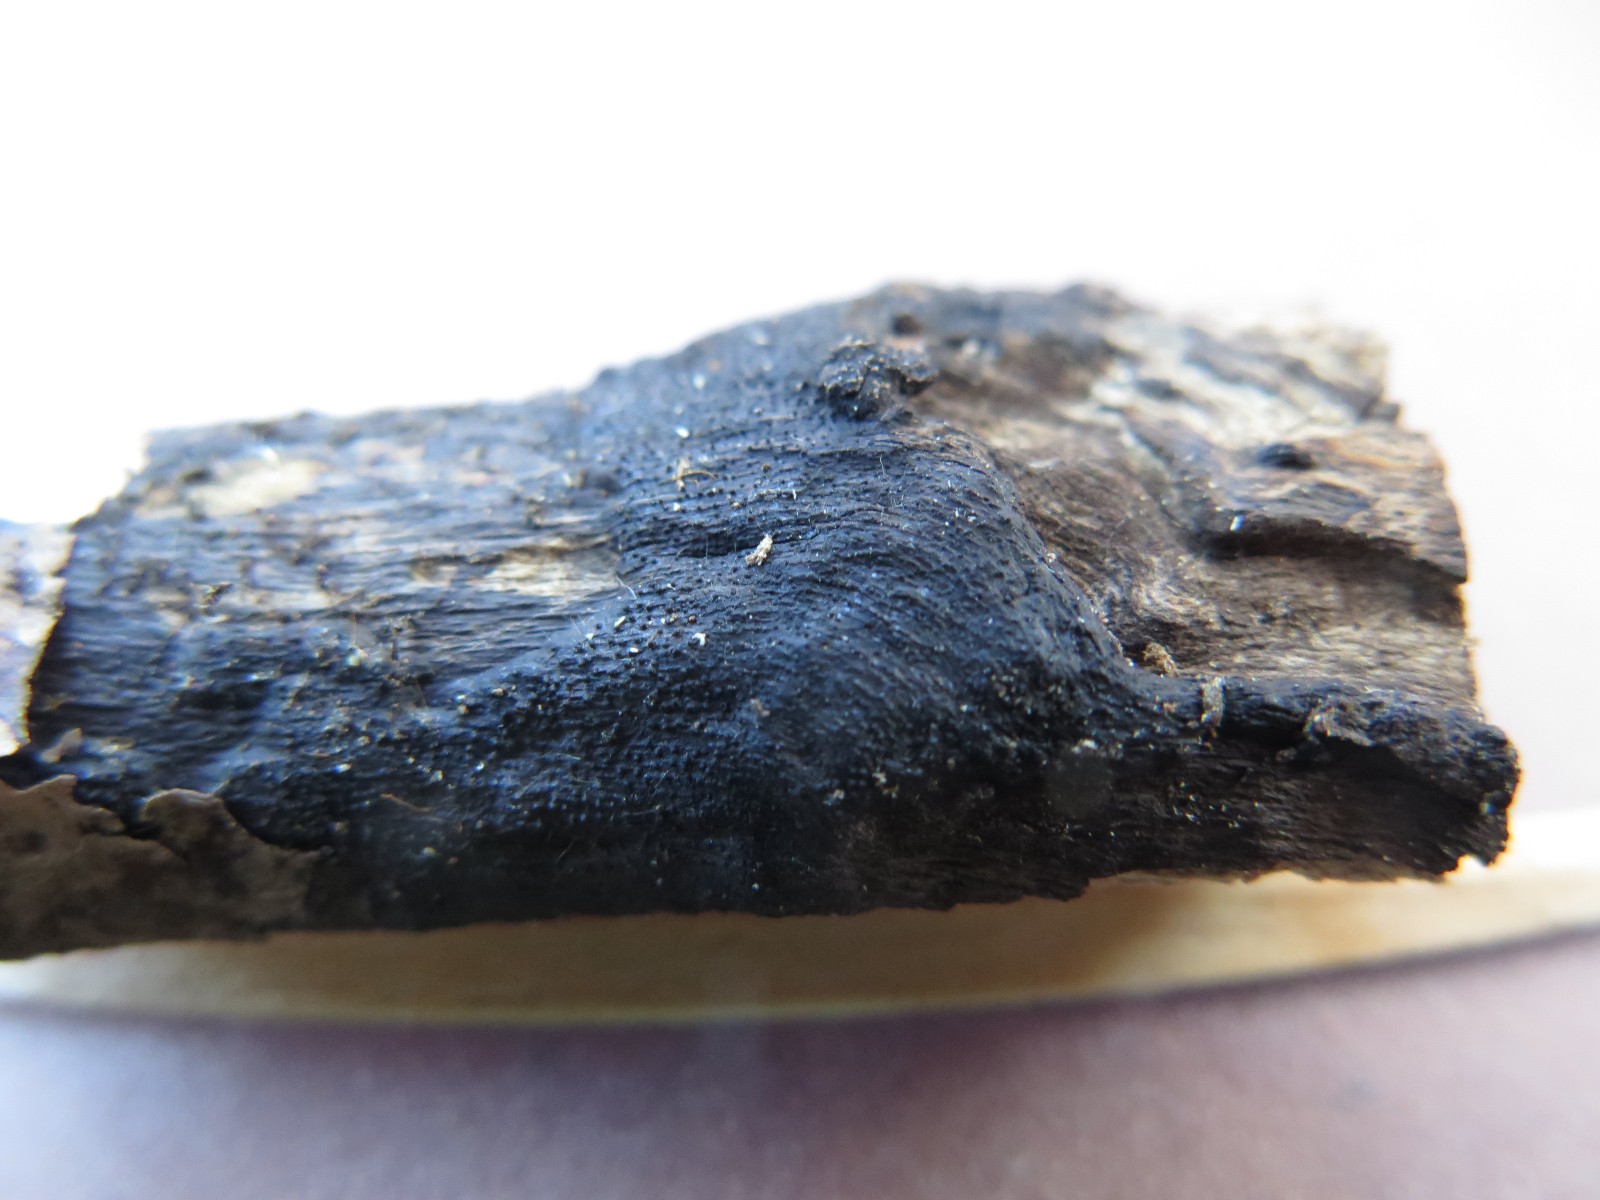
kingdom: Fungi
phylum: Ascomycota
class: Sordariomycetes
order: Xylariales
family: Diatrypaceae
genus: Eutypa
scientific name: Eutypa lata
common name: almindelig kulskorpe
